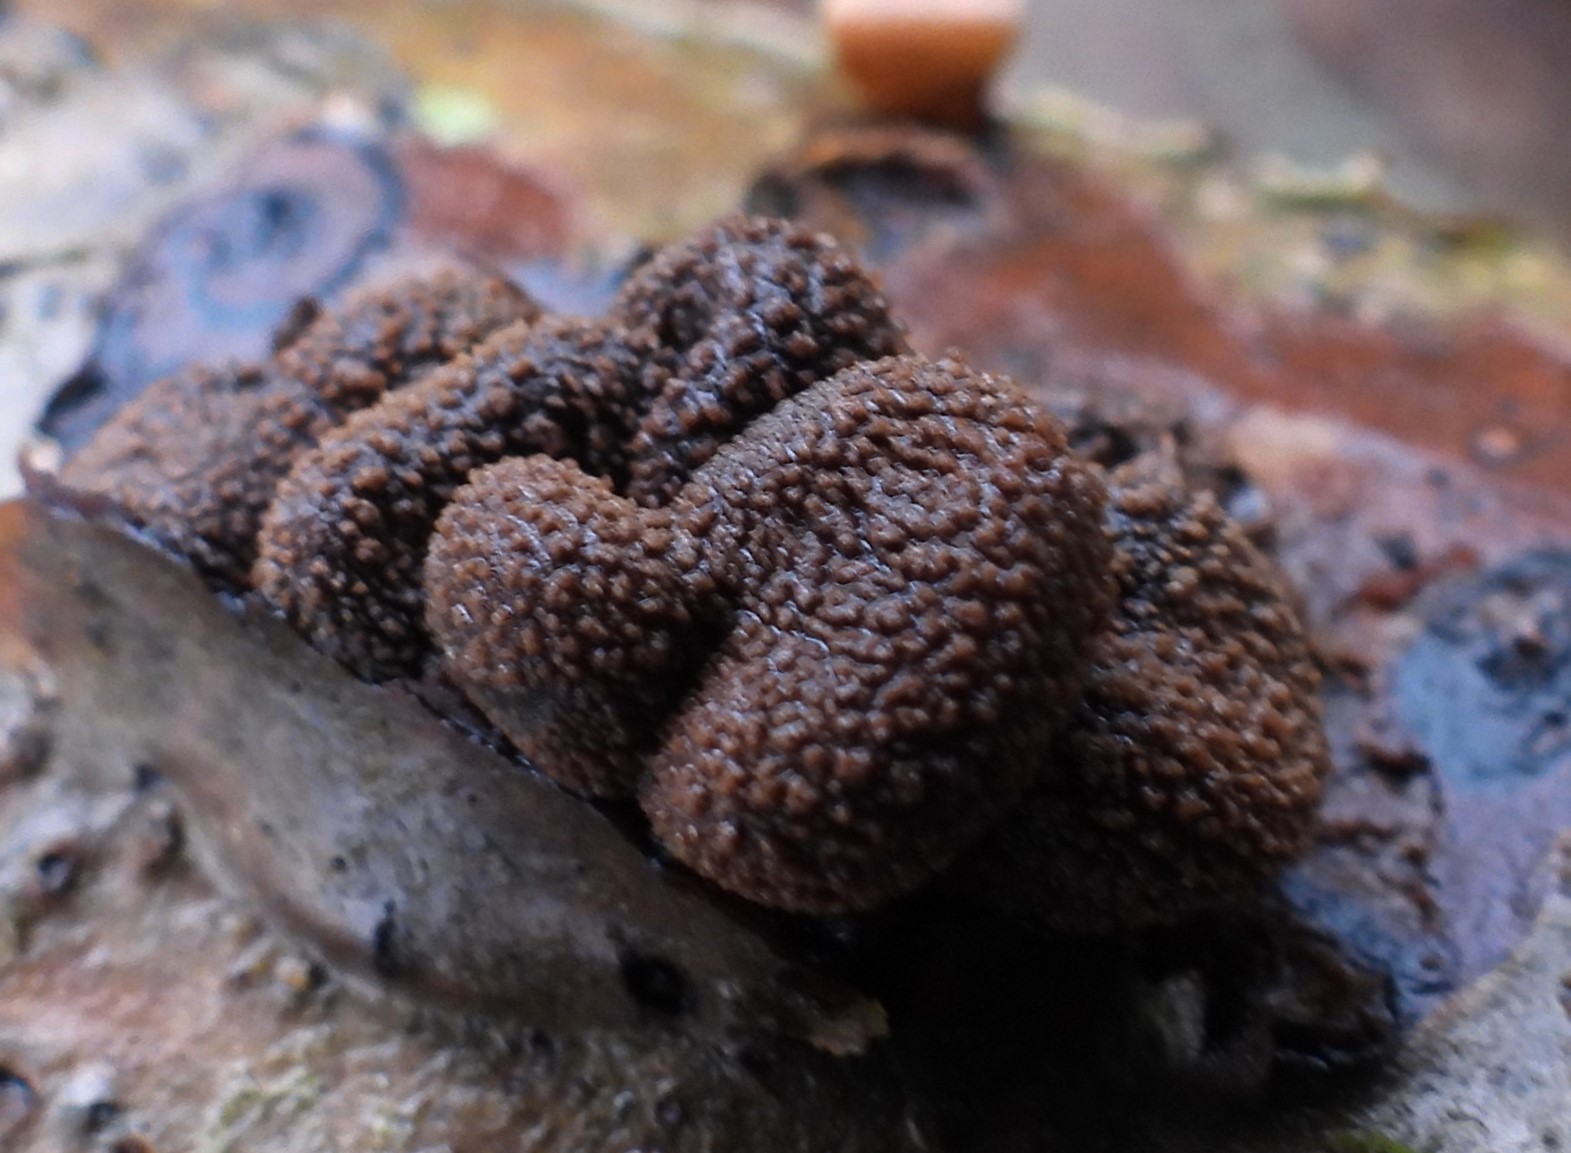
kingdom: Fungi
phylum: Ascomycota
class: Leotiomycetes
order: Helotiales
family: Cenangiaceae
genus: Encoelia
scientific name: Encoelia furfuracea
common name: hassel-læderskive
